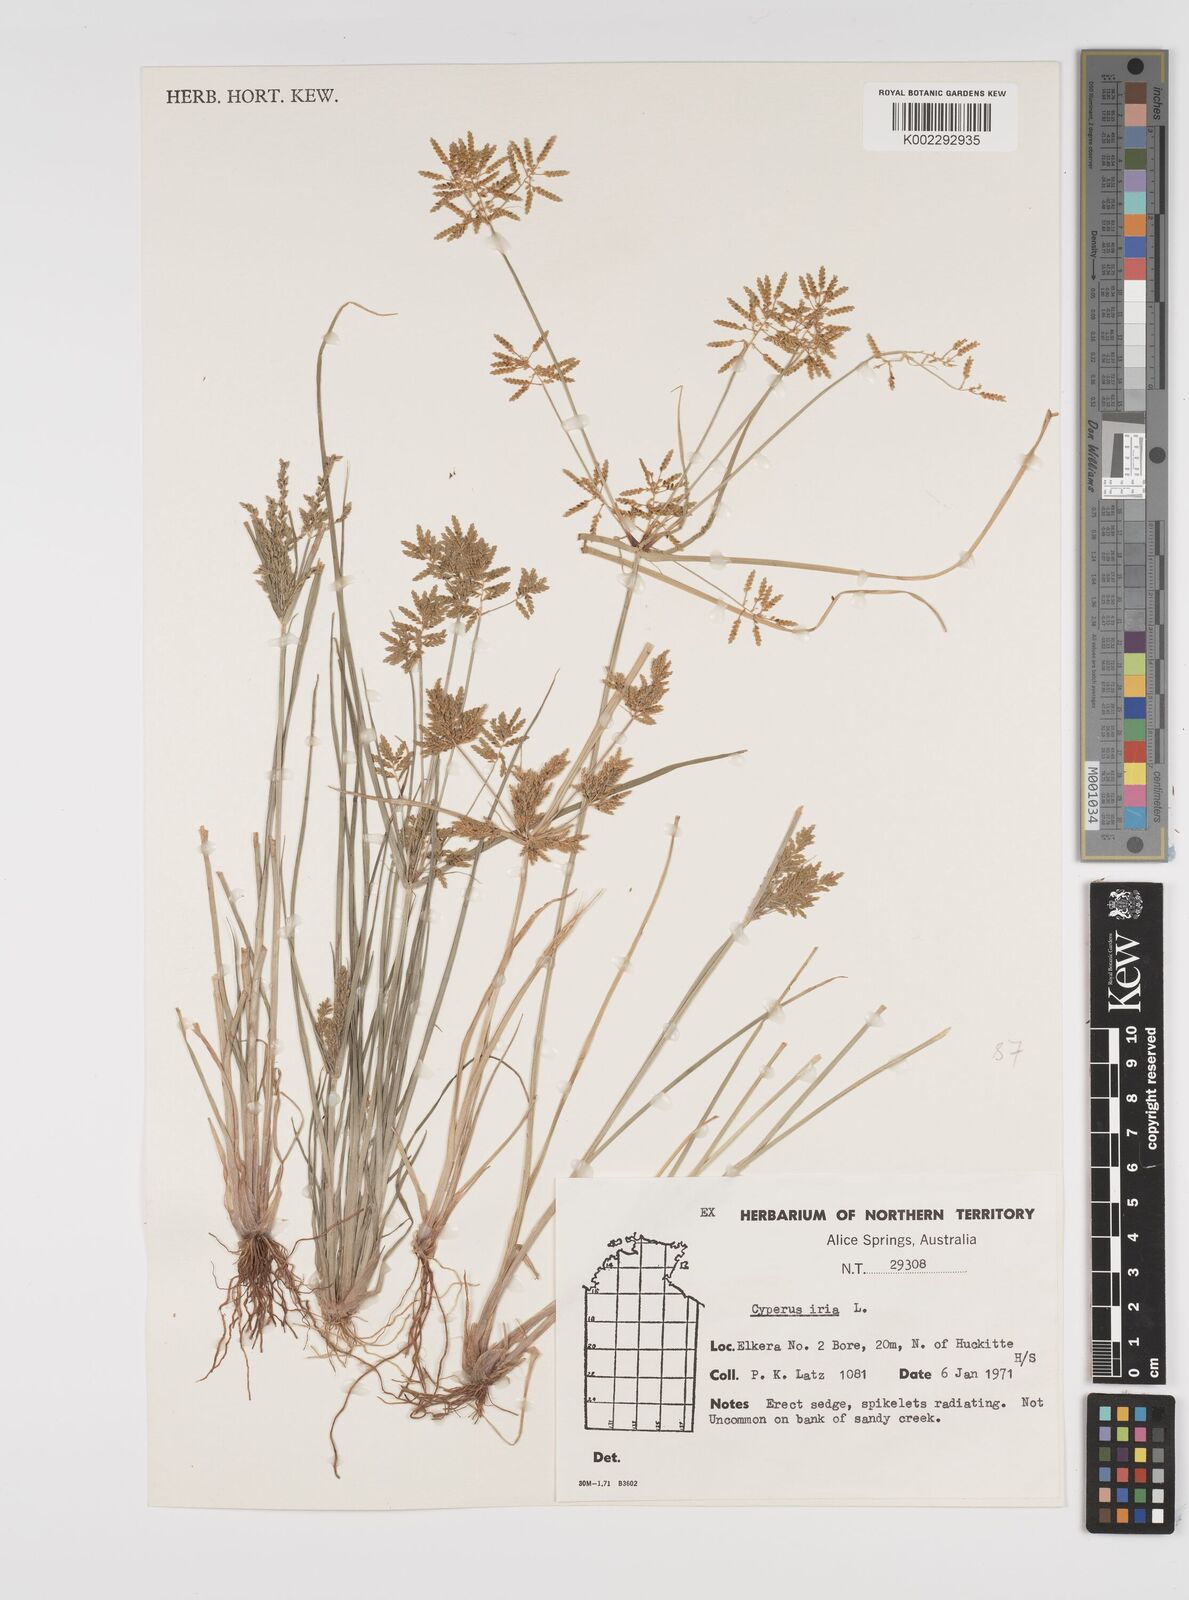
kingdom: Plantae
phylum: Tracheophyta
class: Liliopsida
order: Poales
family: Cyperaceae
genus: Cyperus
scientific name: Cyperus iria
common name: Ricefield flatsedge
